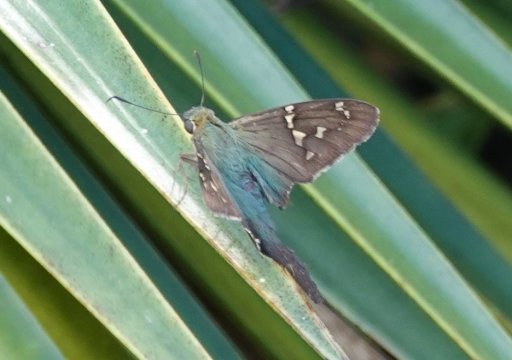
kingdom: Animalia
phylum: Arthropoda
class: Insecta
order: Lepidoptera
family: Hesperiidae
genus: Urbanus
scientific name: Urbanus proteus
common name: Long-tailed Skipper
